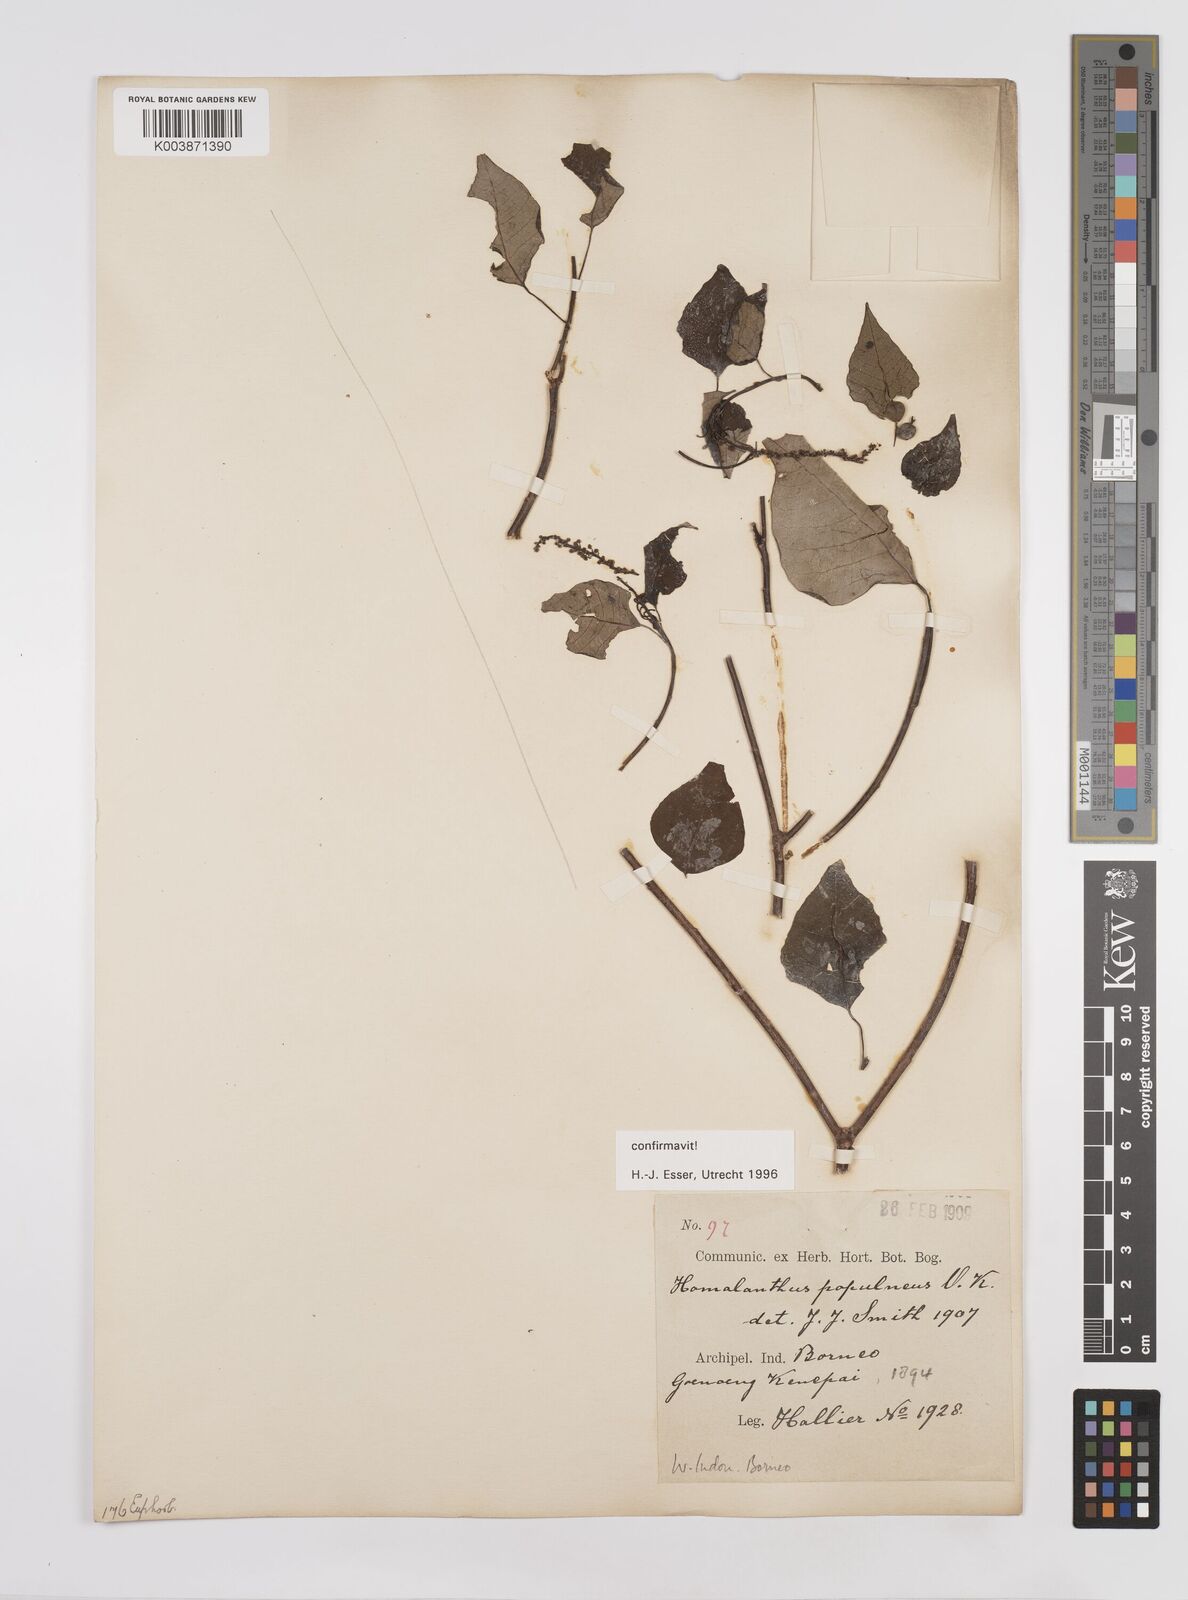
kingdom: Plantae
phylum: Tracheophyta
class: Magnoliopsida
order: Malpighiales
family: Euphorbiaceae
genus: Homalanthus
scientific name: Homalanthus populneus
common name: Spurge
